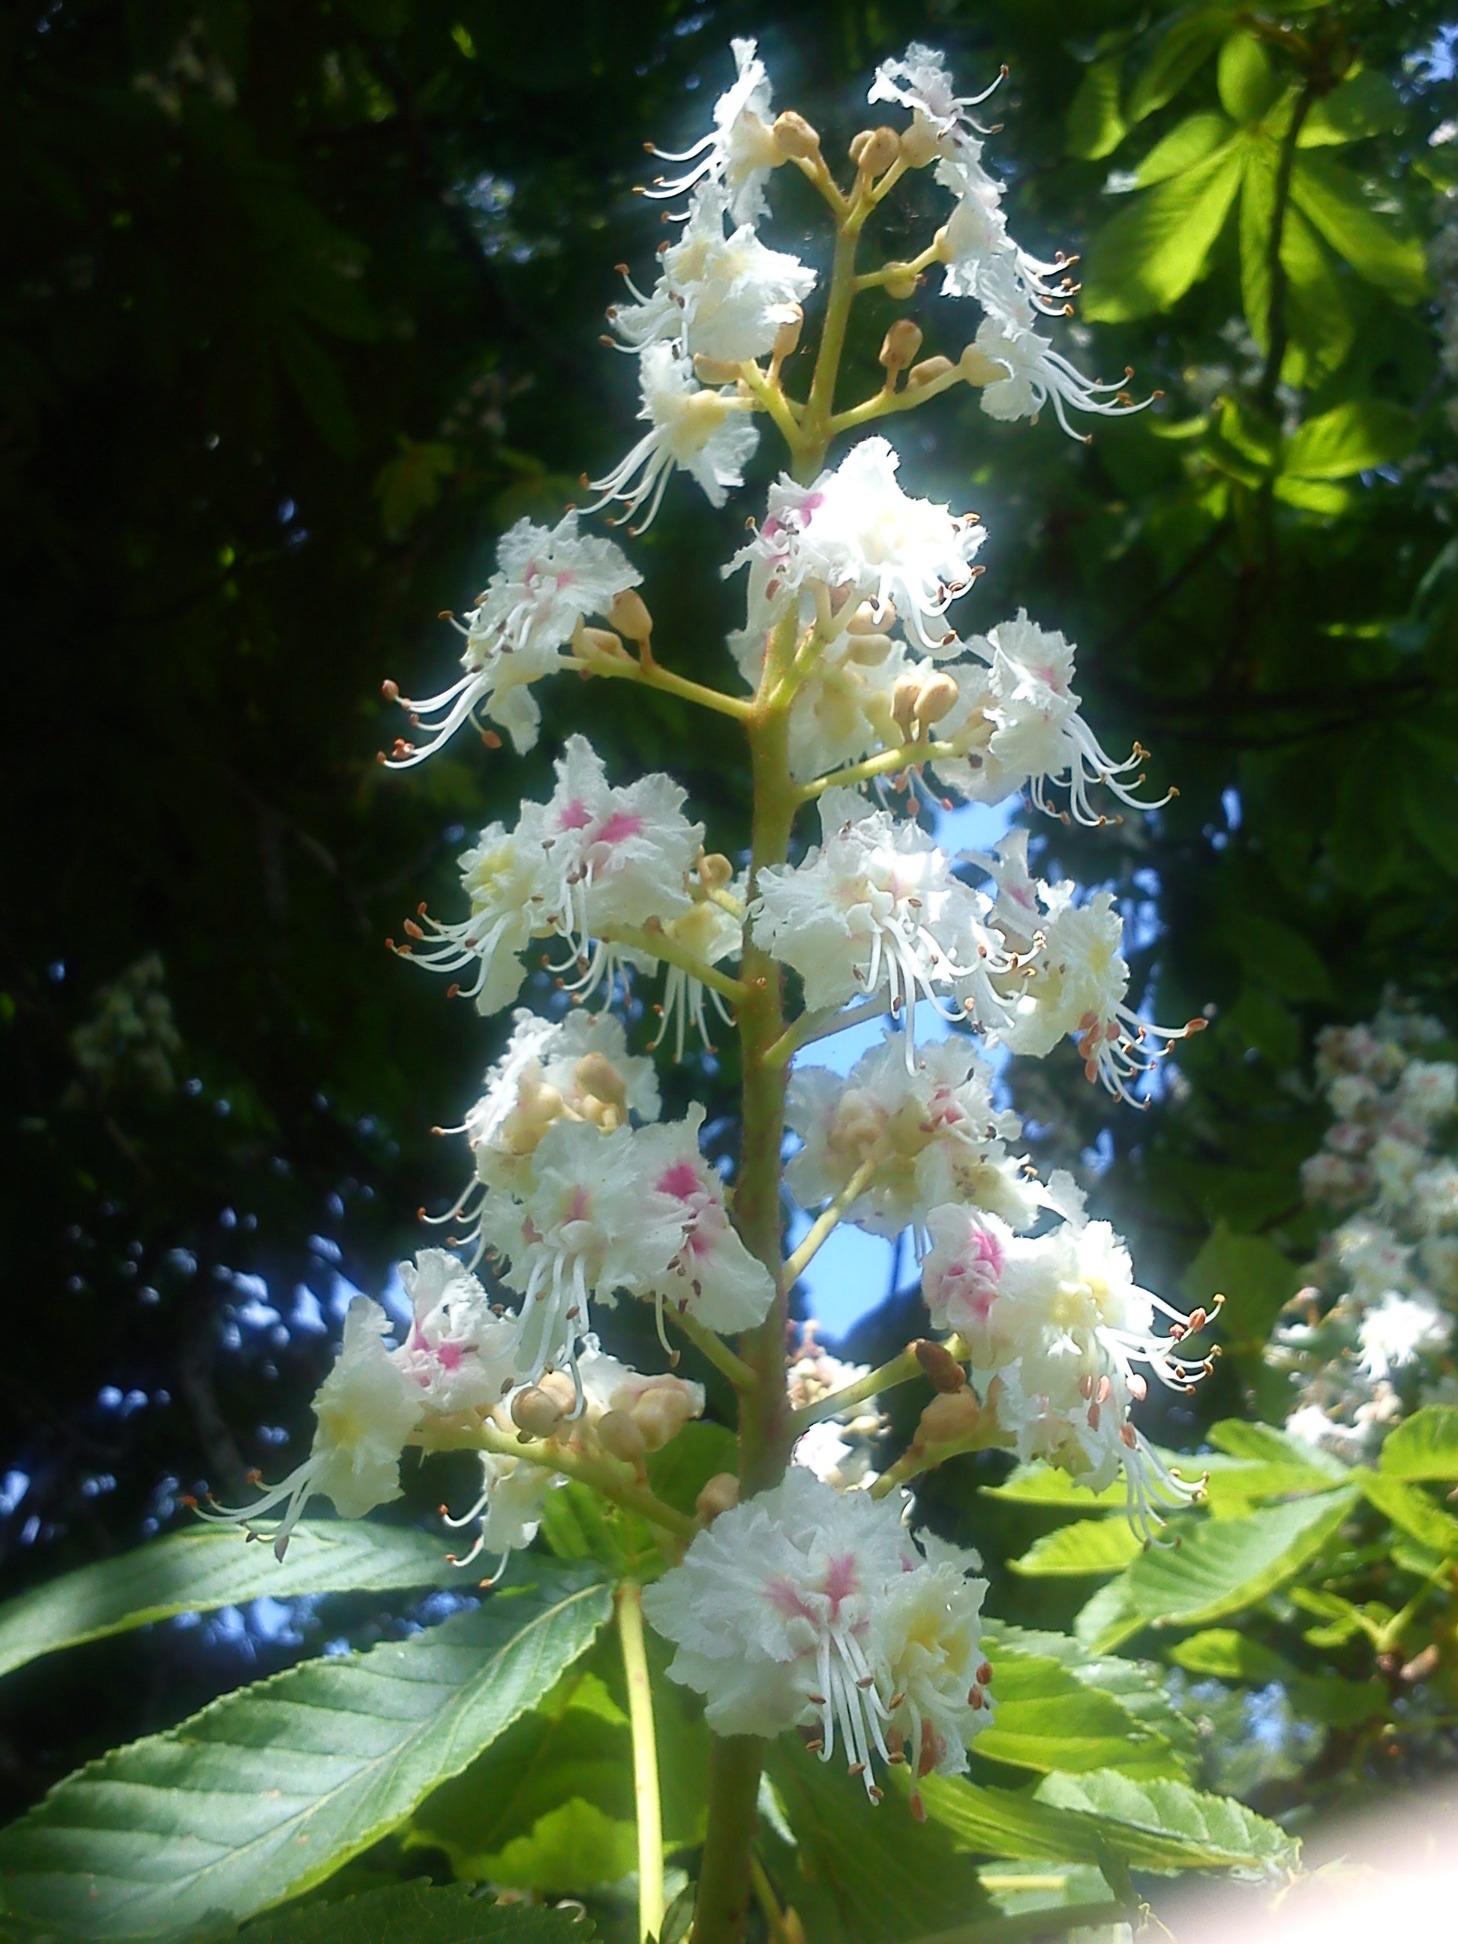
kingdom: Plantae
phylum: Tracheophyta
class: Magnoliopsida
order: Sapindales
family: Sapindaceae
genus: Aesculus
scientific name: Aesculus hippocastanum
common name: Hestekastanie
